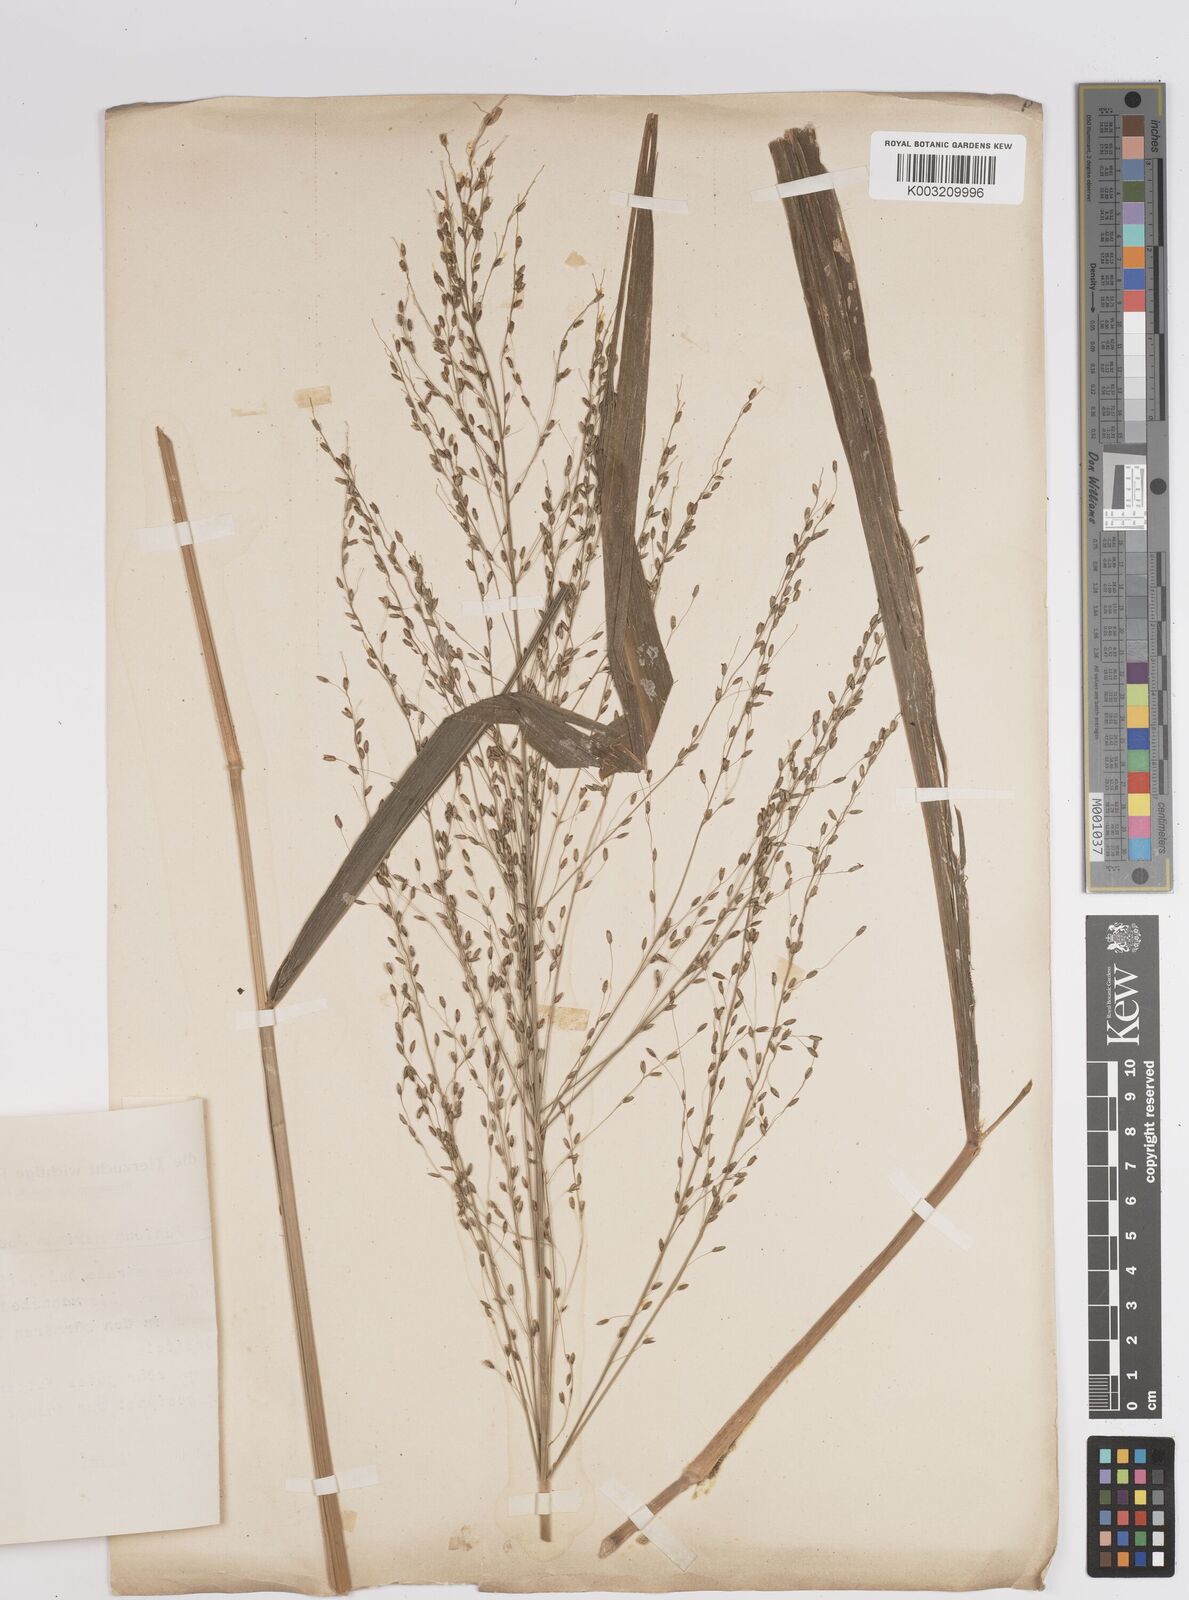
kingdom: Plantae
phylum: Tracheophyta
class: Liliopsida
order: Poales
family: Poaceae
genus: Megathyrsus
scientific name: Megathyrsus maximus
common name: Guineagrass
